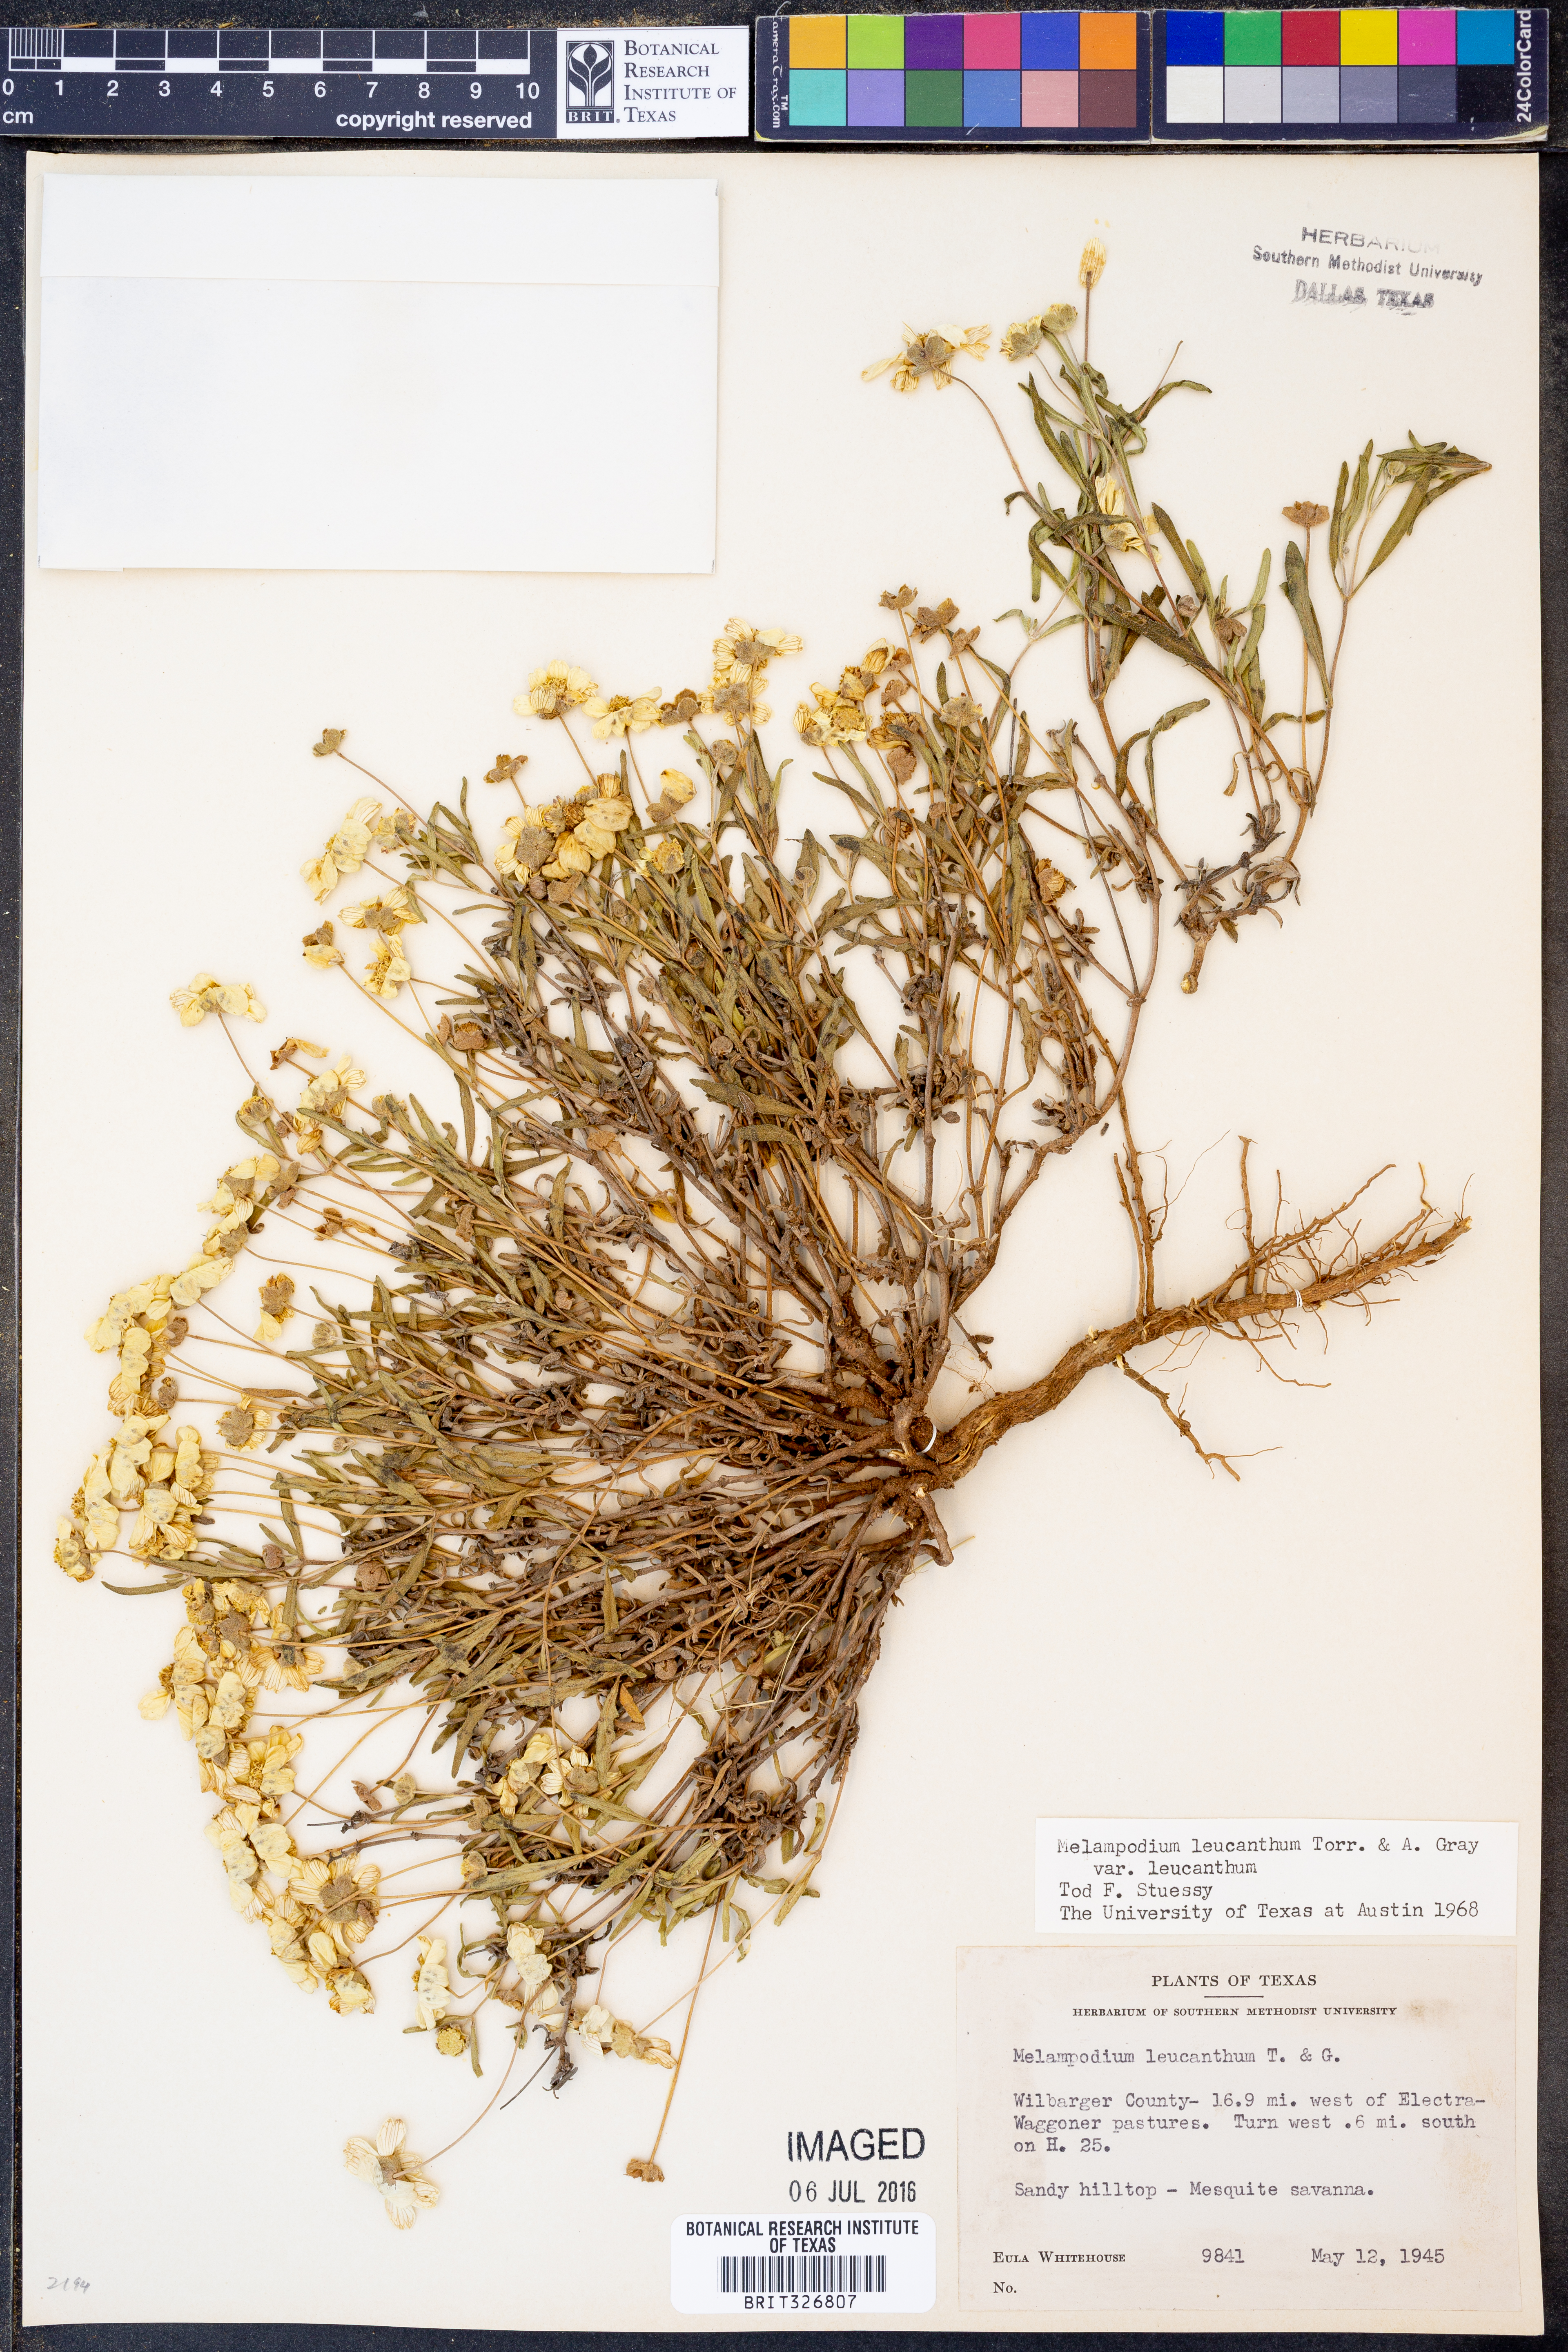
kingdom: Plantae
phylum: Tracheophyta
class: Magnoliopsida
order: Asterales
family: Asteraceae
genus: Melampodium
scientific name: Melampodium leucanthum
